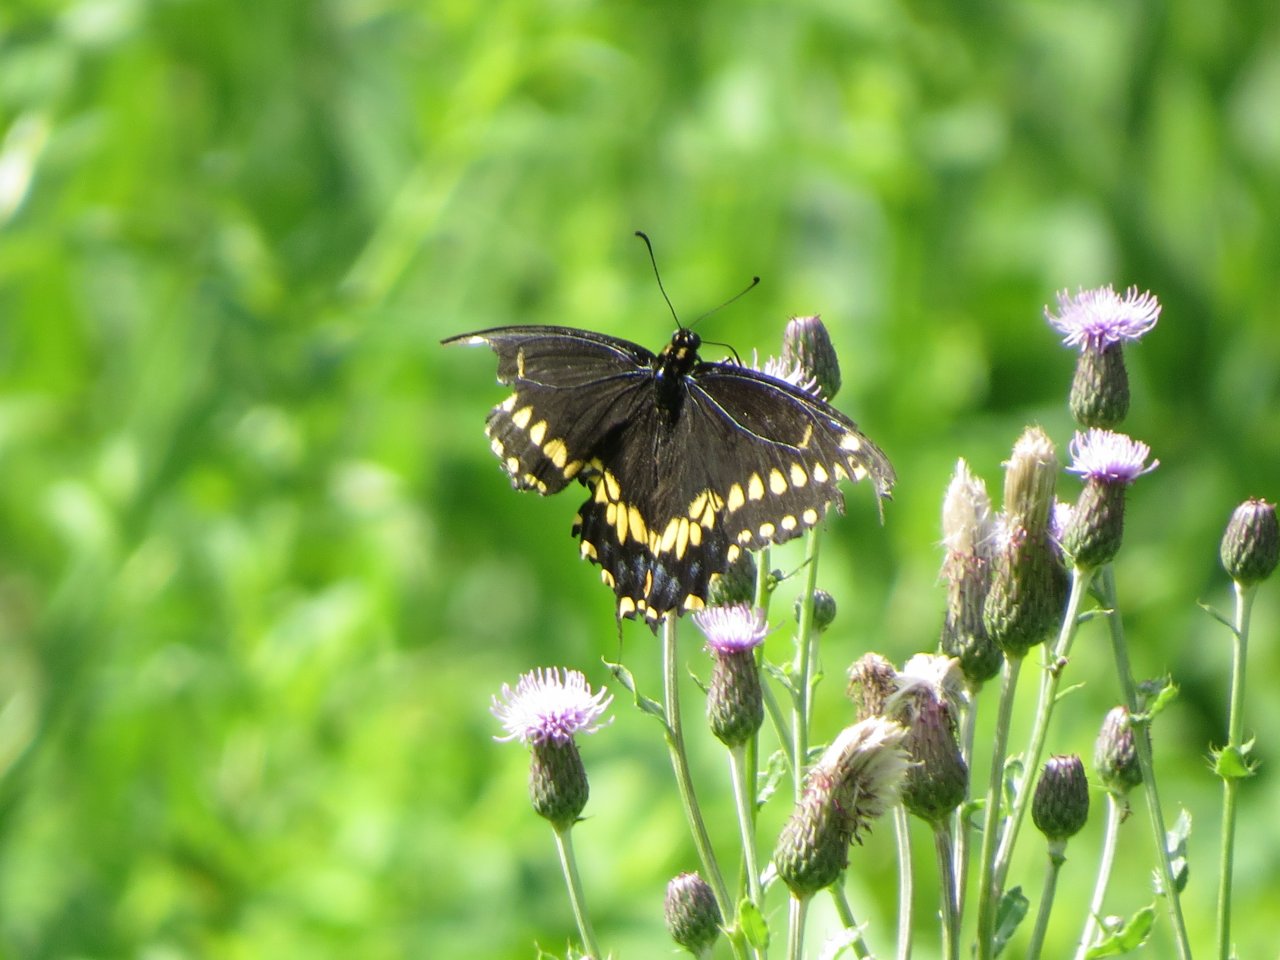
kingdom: Animalia
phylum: Arthropoda
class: Insecta
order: Lepidoptera
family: Papilionidae
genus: Papilio
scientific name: Papilio polyxenes
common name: Black Swallowtail
